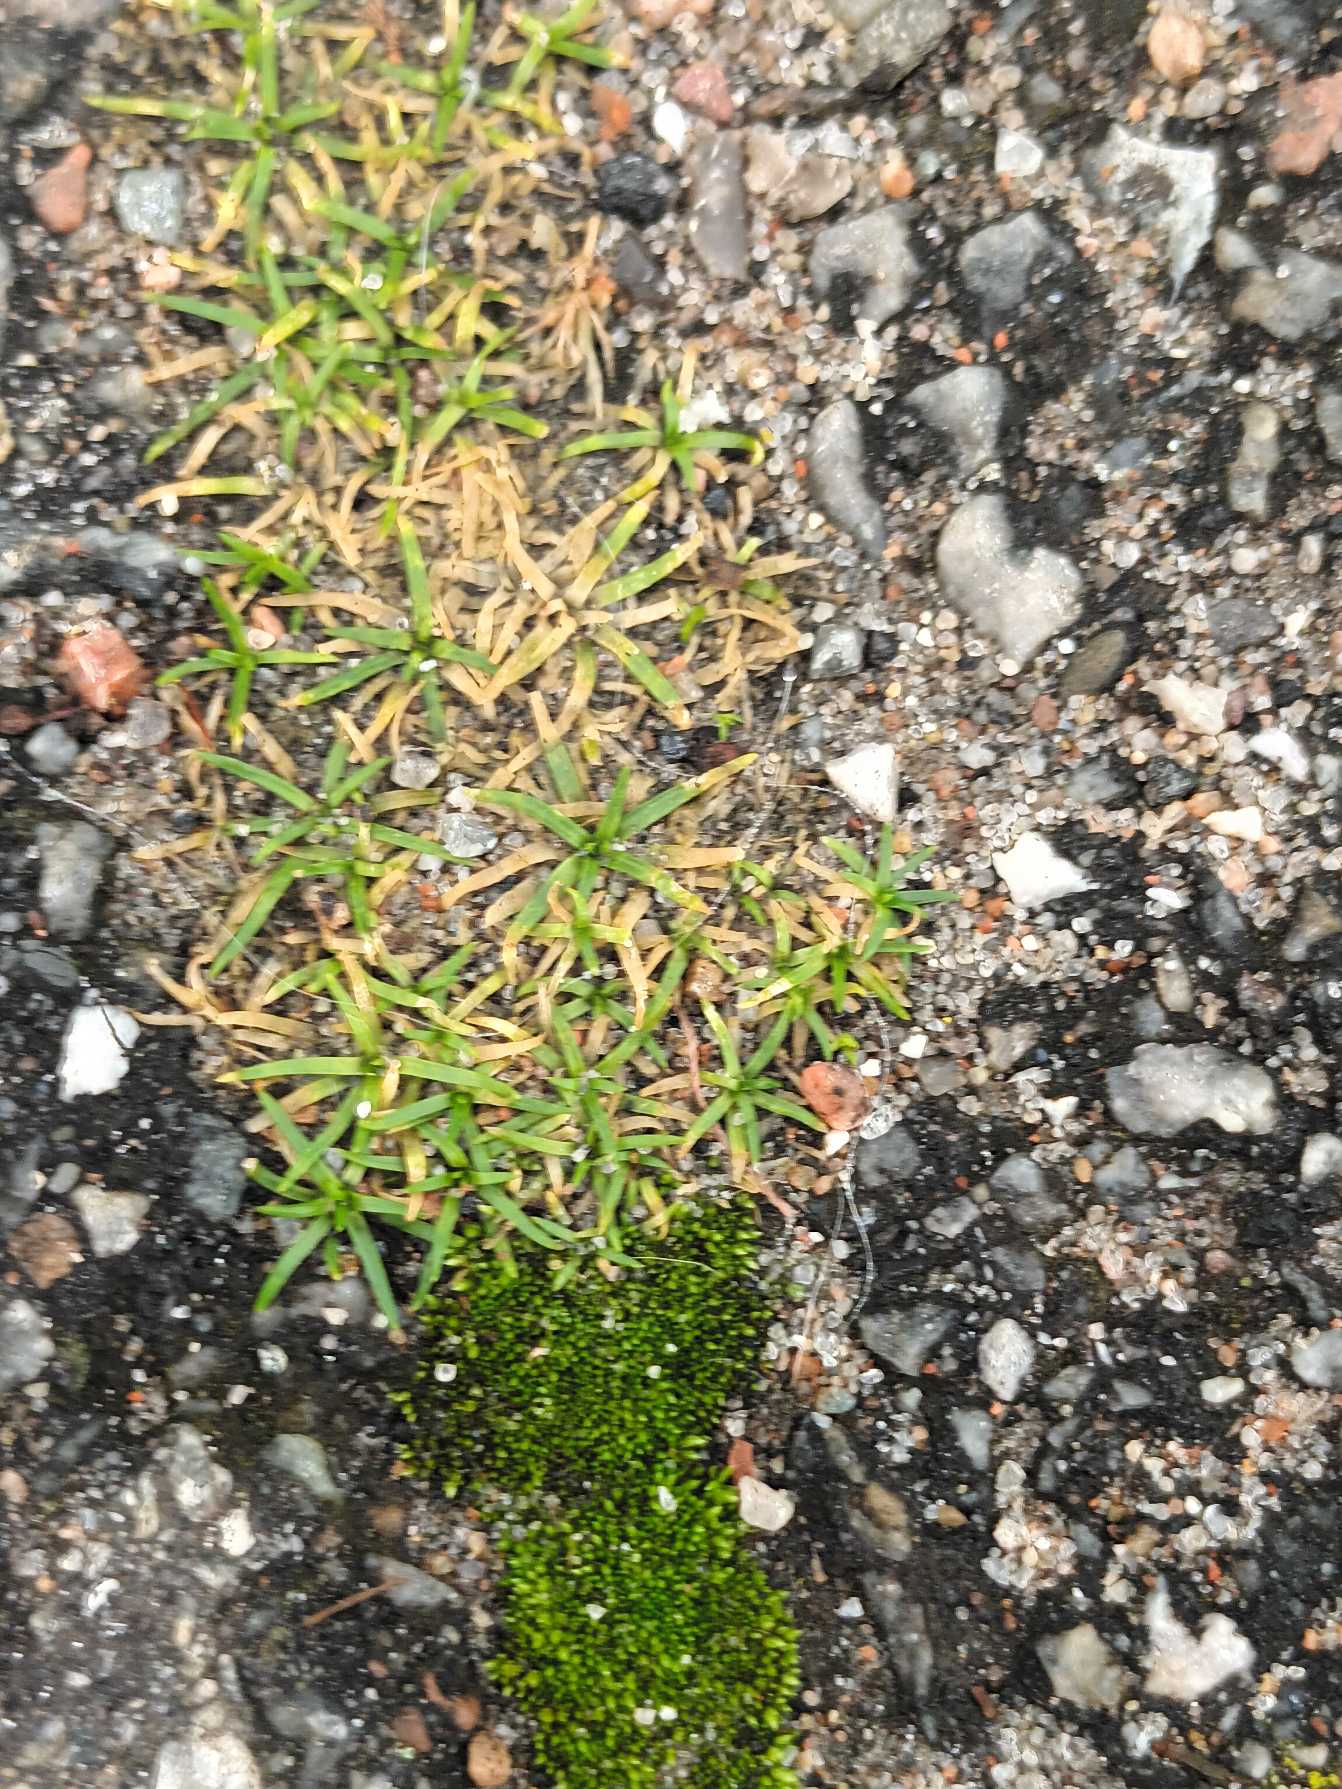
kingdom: Plantae
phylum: Tracheophyta
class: Magnoliopsida
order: Caryophyllales
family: Caryophyllaceae
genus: Sagina
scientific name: Sagina procumbens
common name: Almindelig firling
